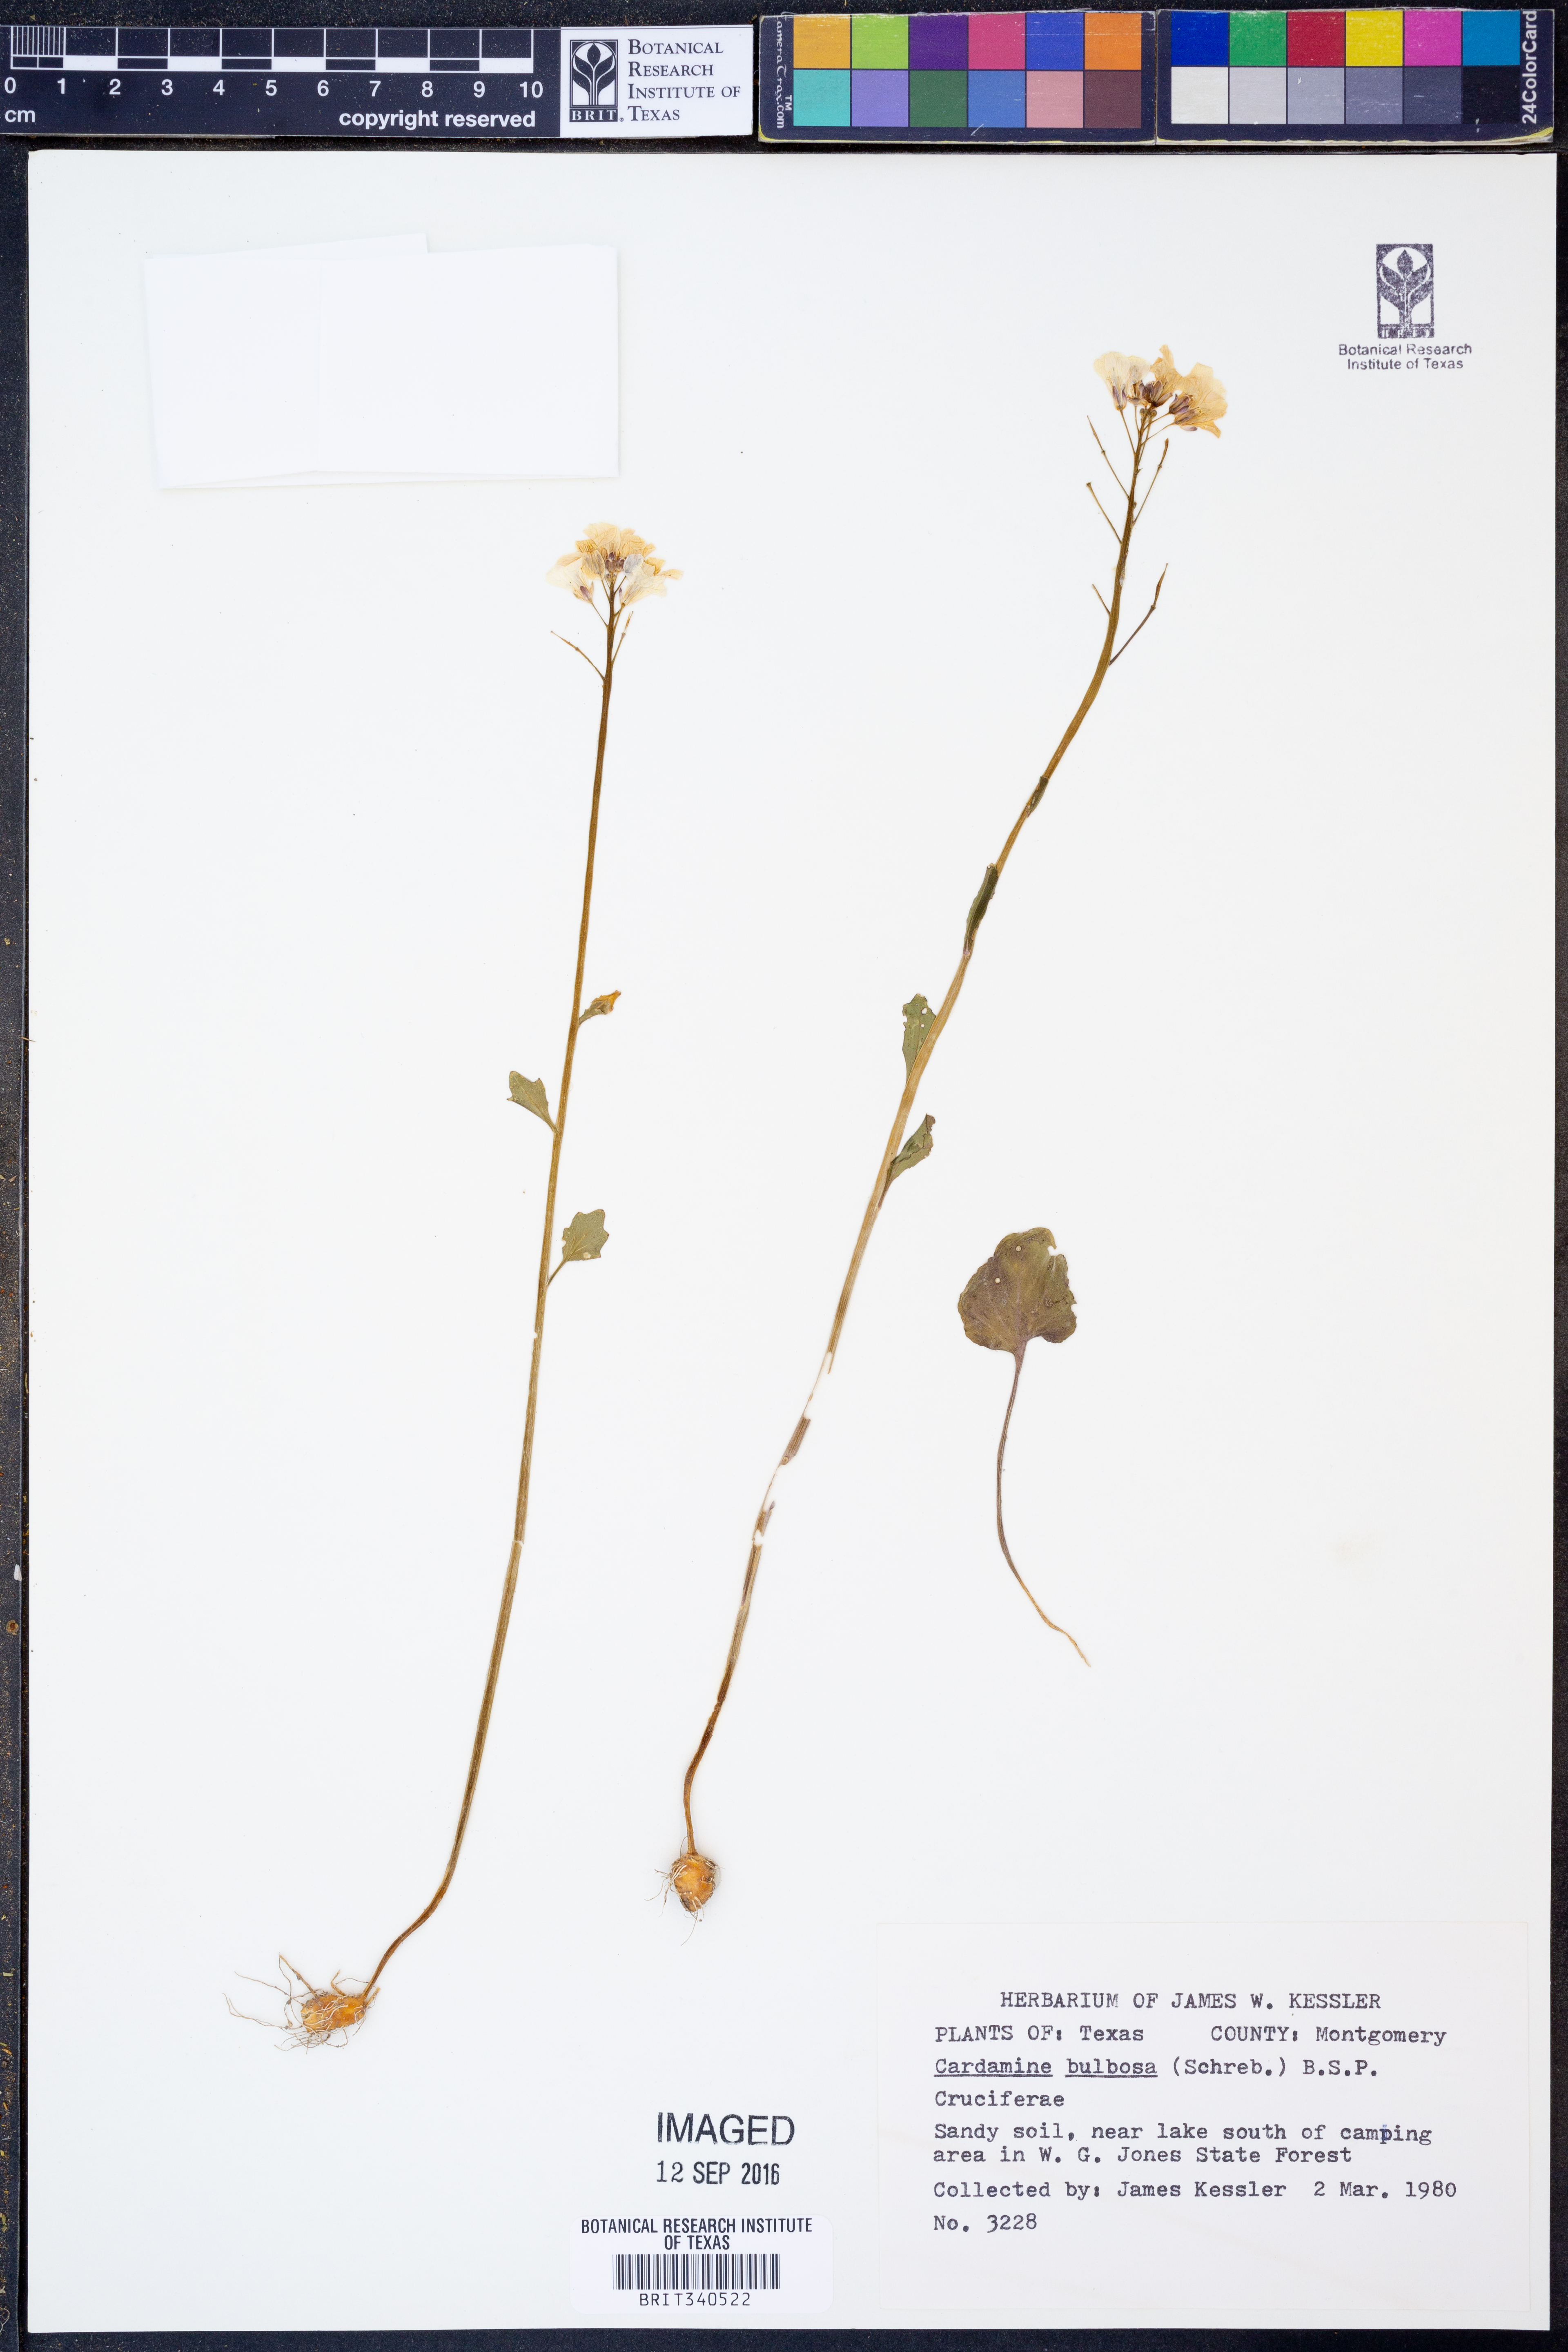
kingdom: Plantae
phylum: Tracheophyta
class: Magnoliopsida
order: Brassicales
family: Brassicaceae
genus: Cardamine
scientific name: Cardamine bulbosa
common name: Spring cress
